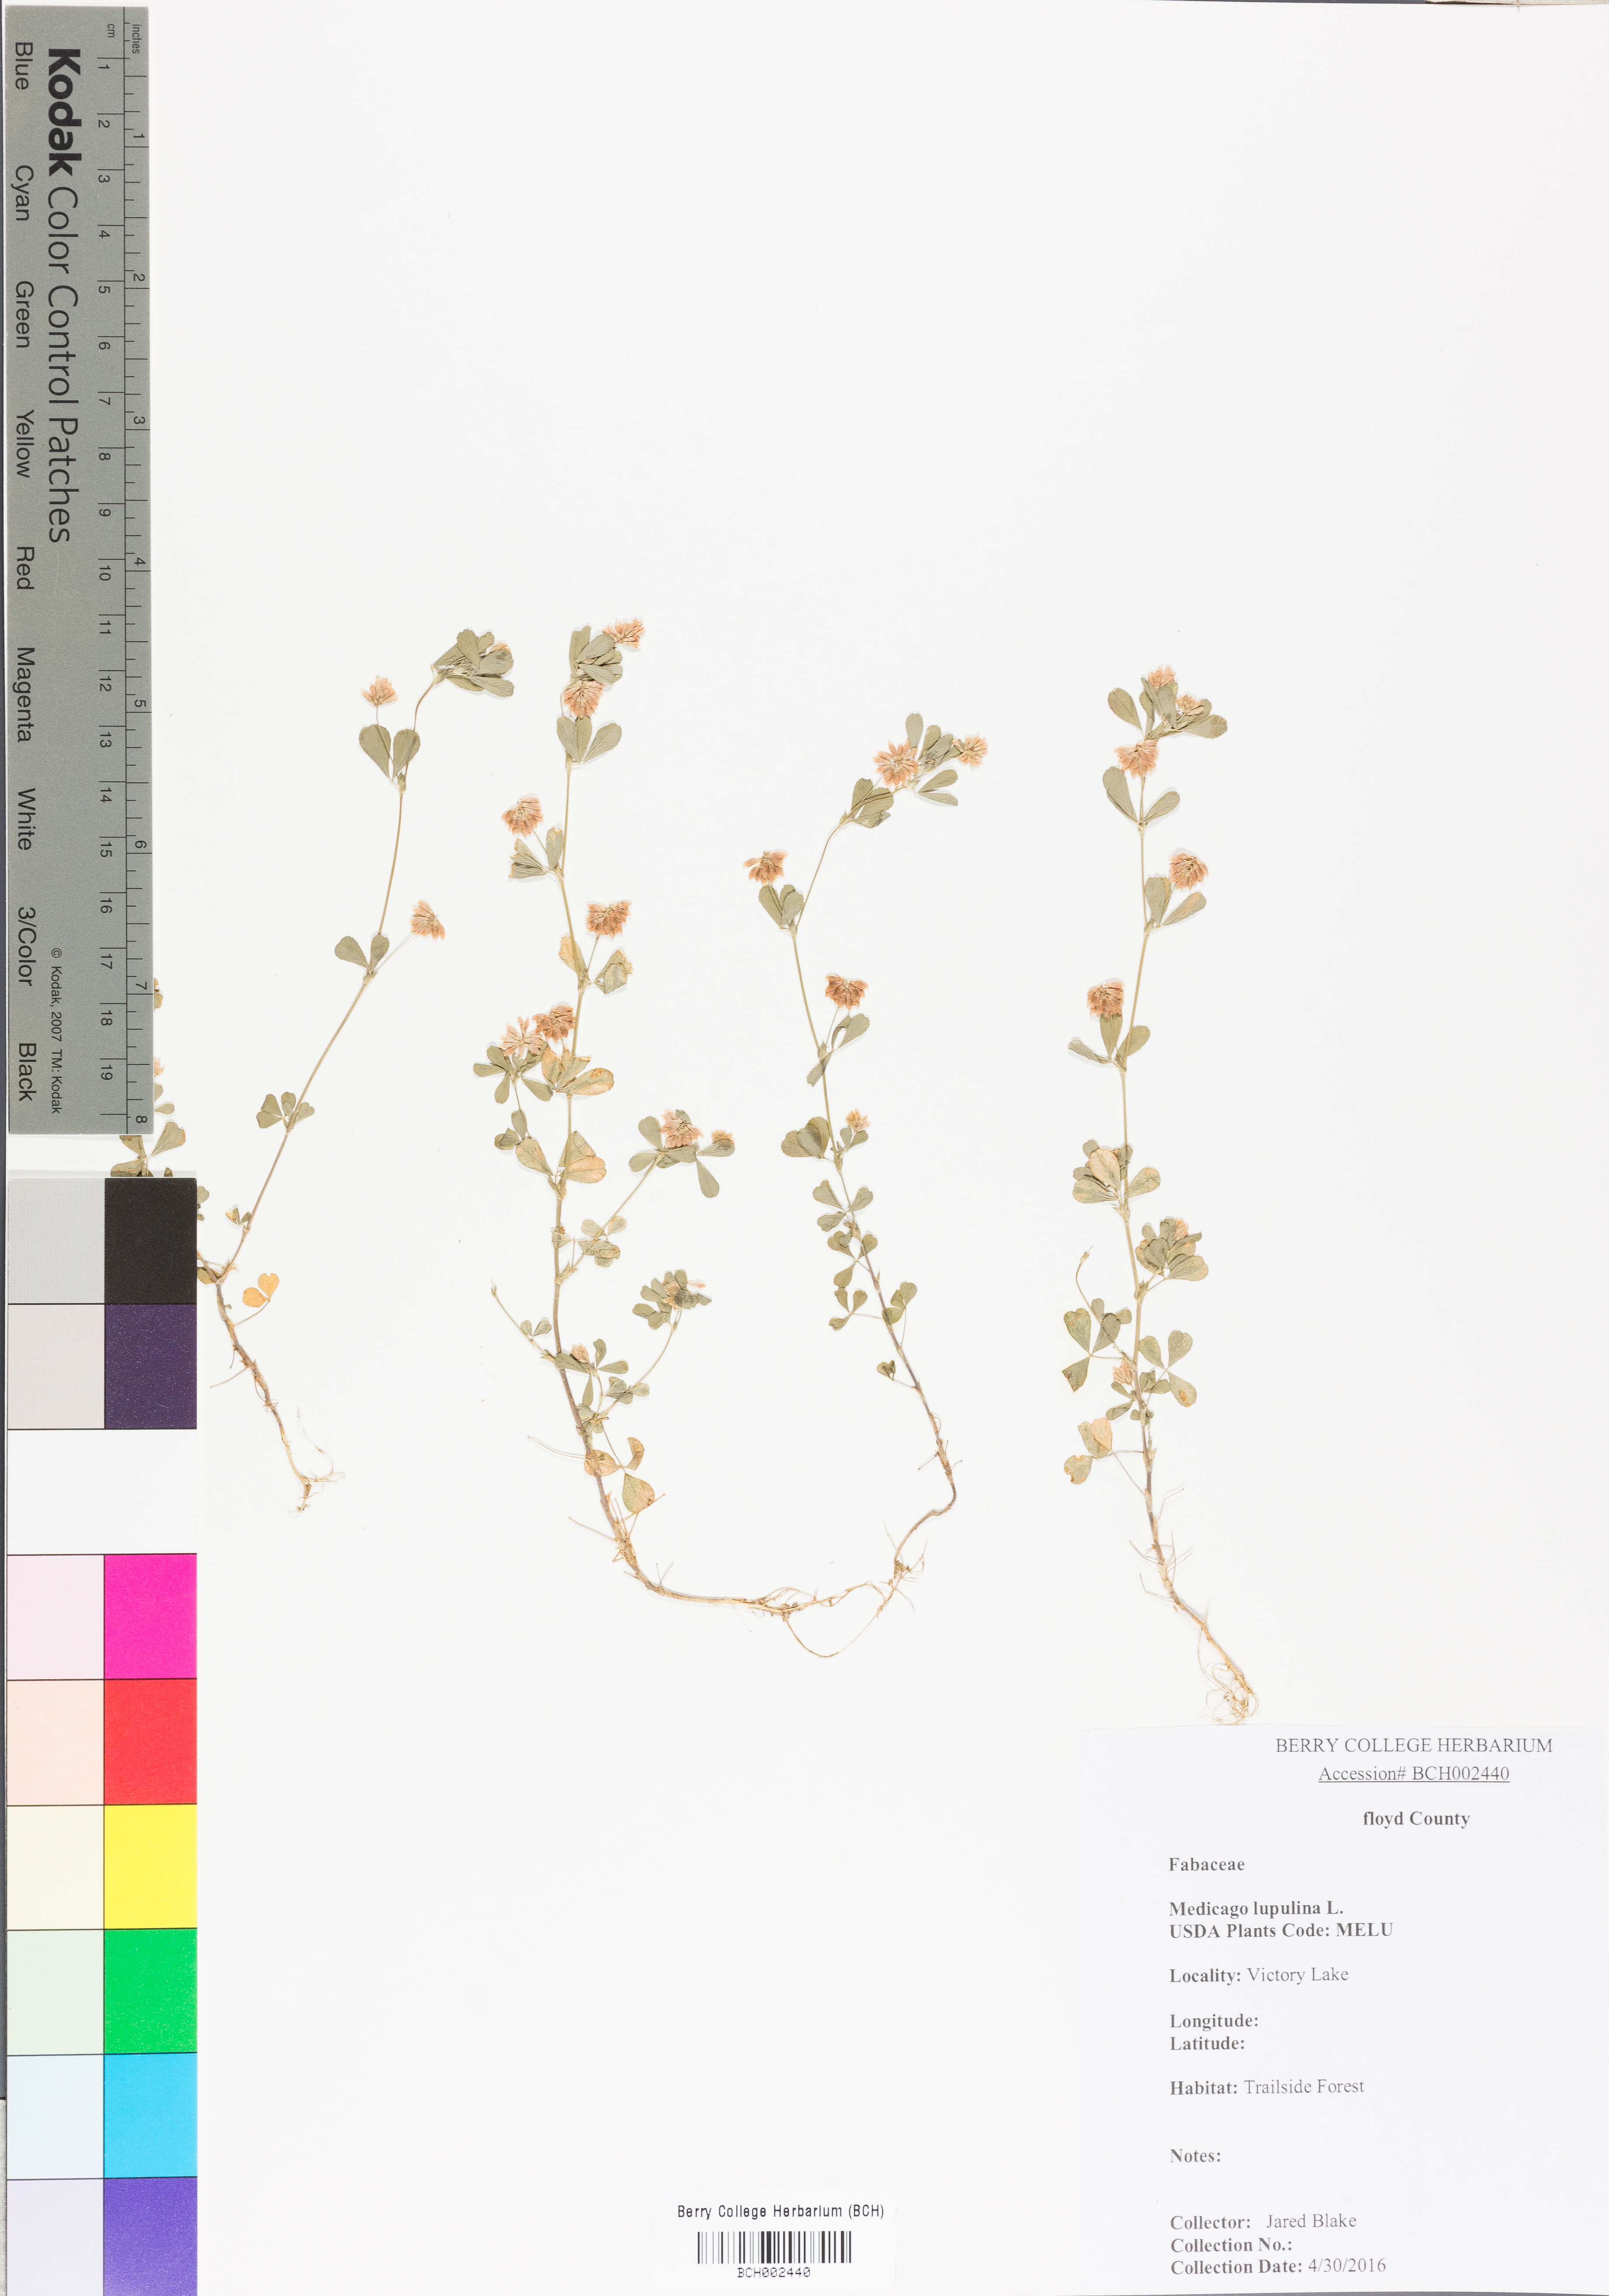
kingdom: Plantae
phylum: Tracheophyta
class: Magnoliopsida
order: Fabales
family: Fabaceae
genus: Medicago
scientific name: Medicago lupulina
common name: Black medick
